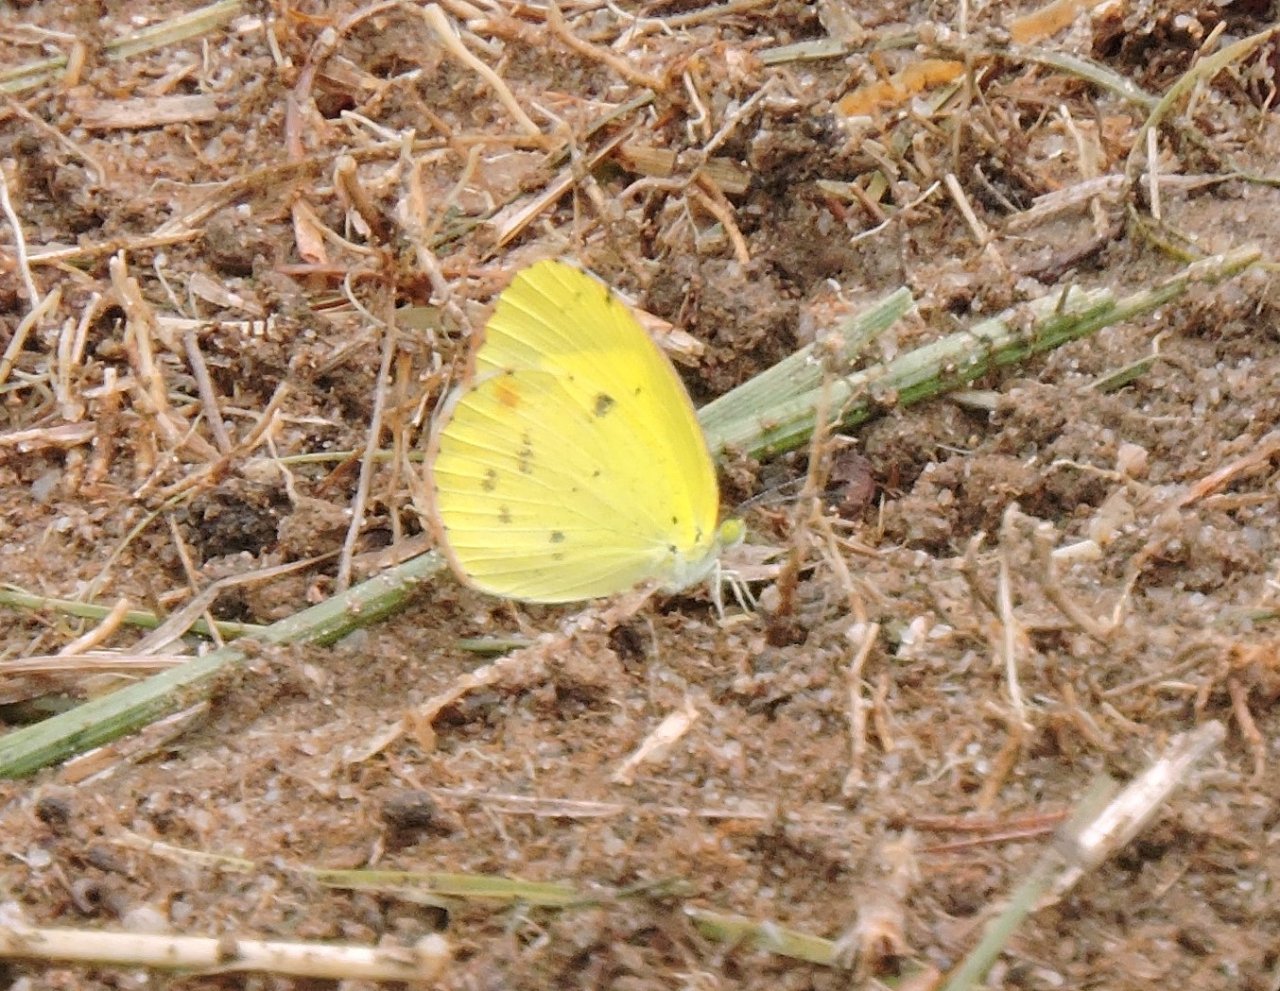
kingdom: Animalia
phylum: Arthropoda
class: Insecta
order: Lepidoptera
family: Pieridae
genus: Pyrisitia
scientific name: Pyrisitia lisa
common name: Little Yellow
